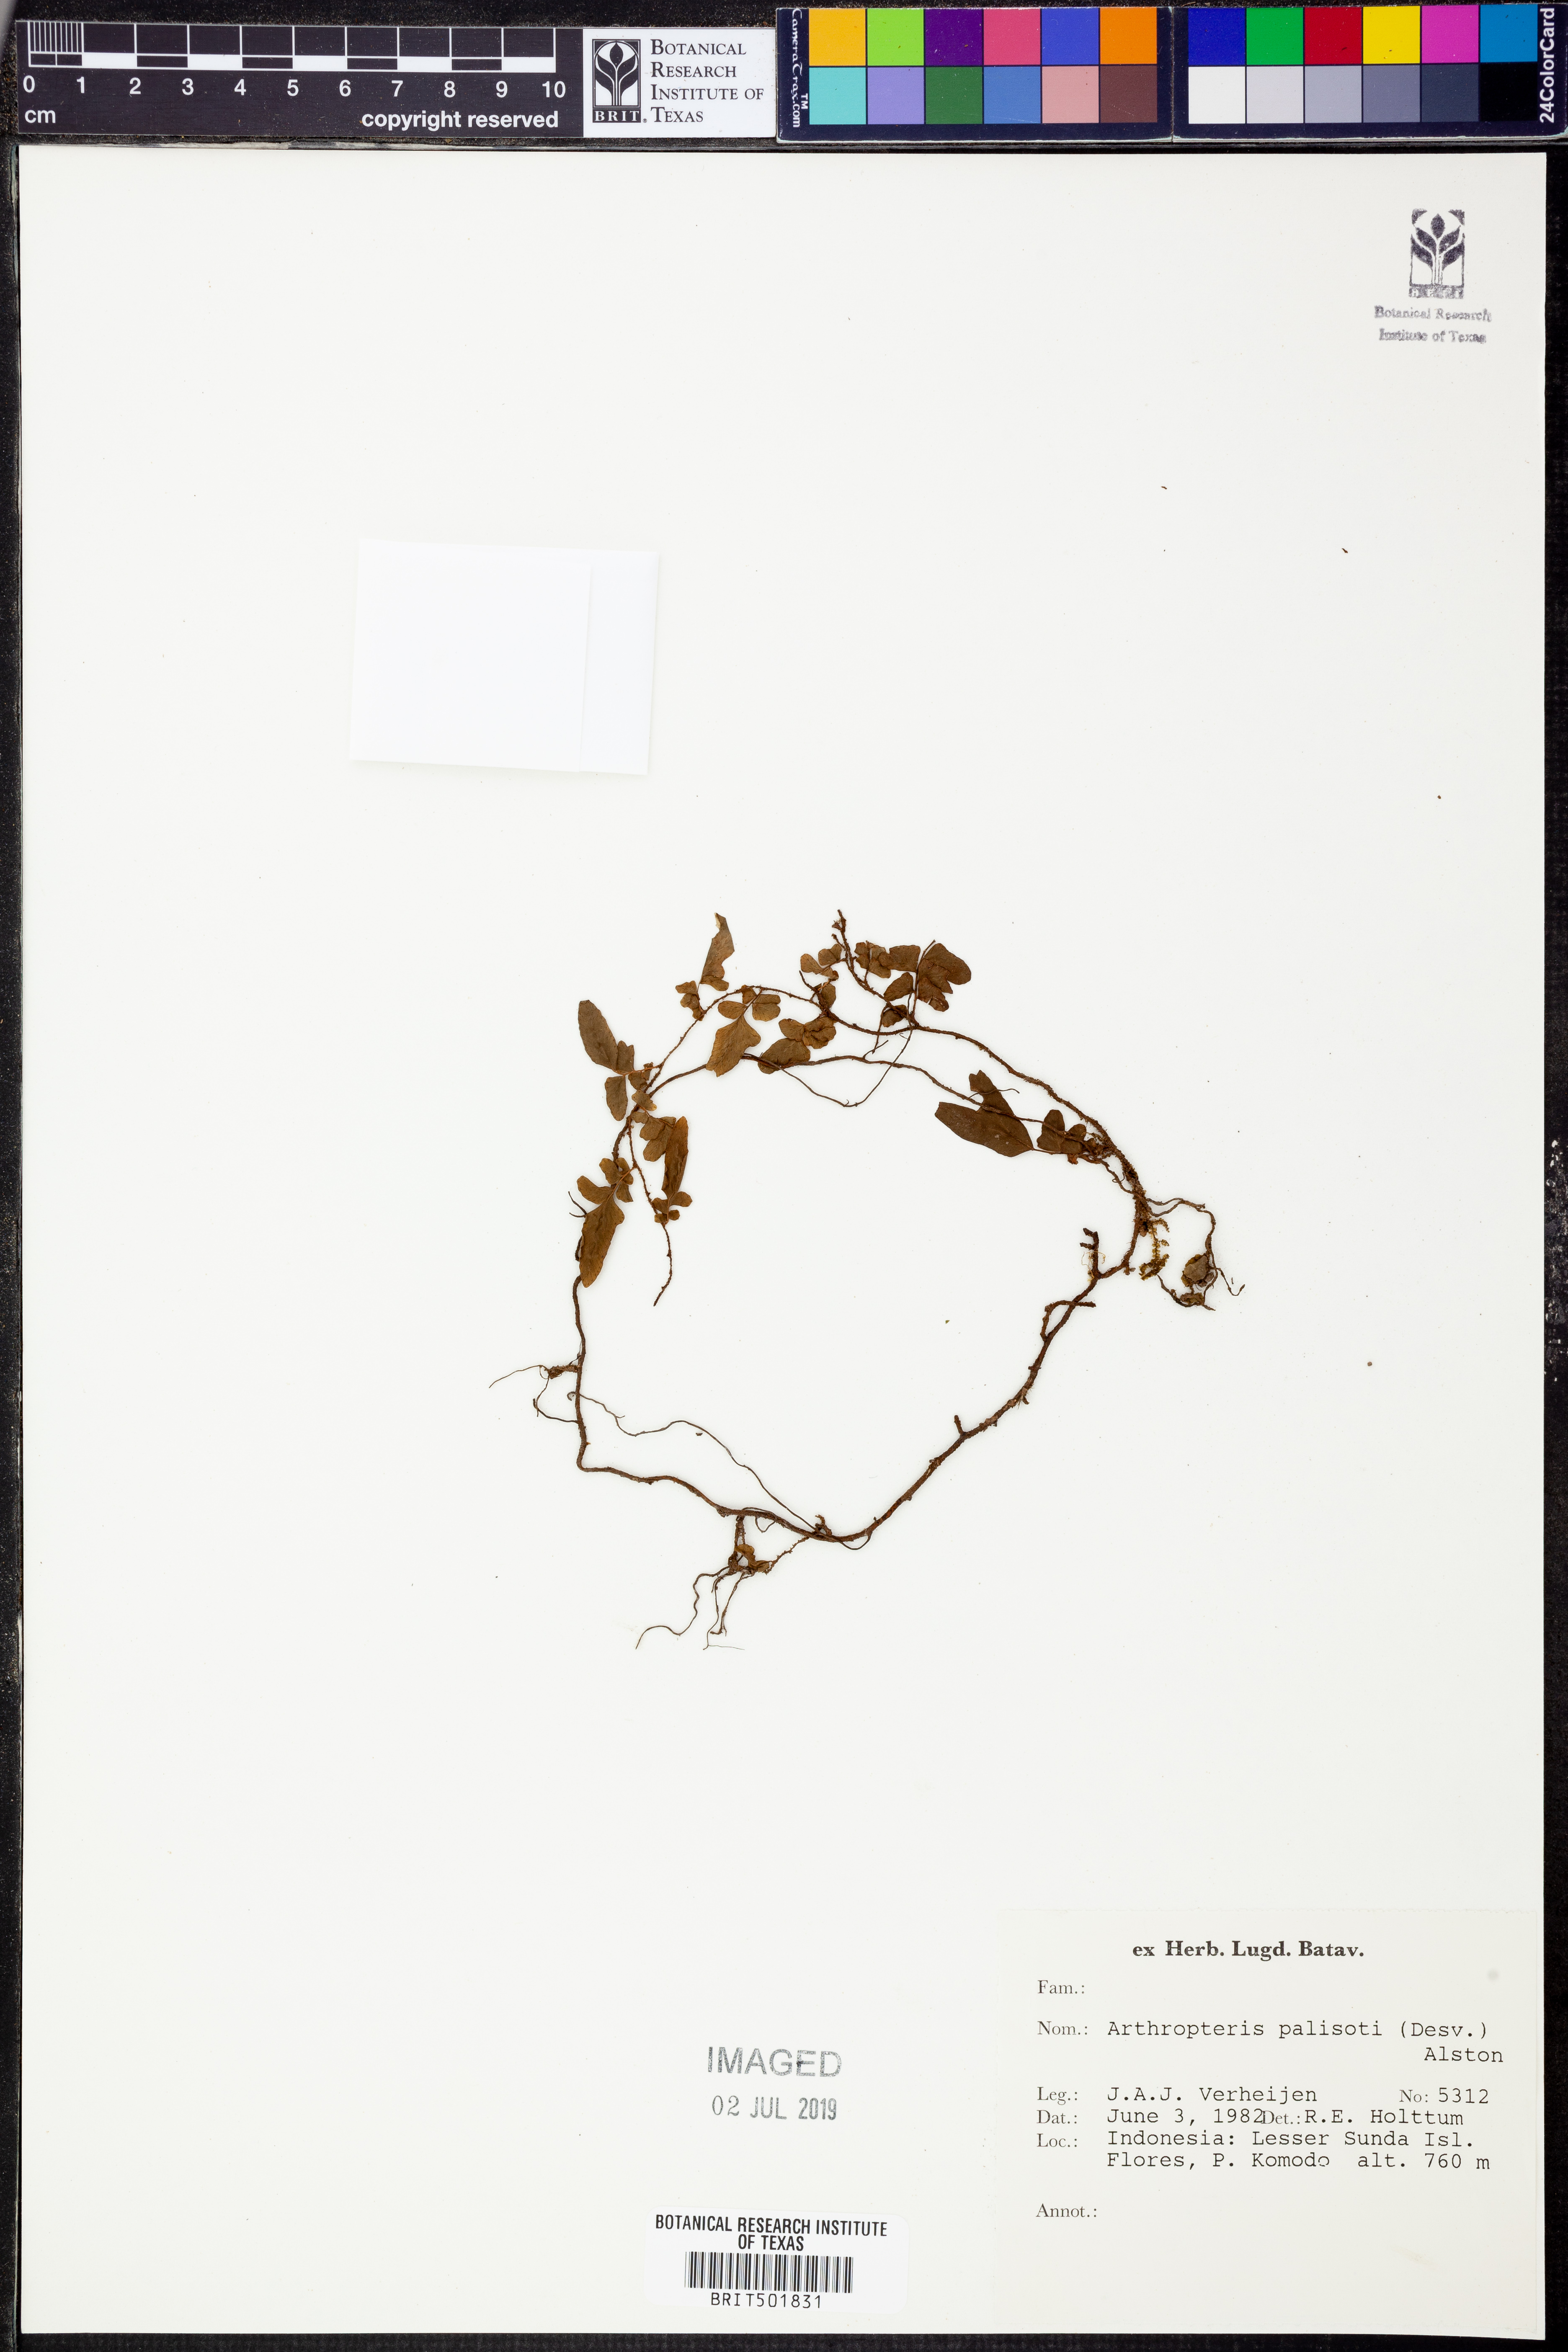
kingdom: Plantae
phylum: Tracheophyta
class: Polypodiopsida
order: Polypodiales
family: Tectariaceae
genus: Arthropteris
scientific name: Arthropteris palisotii
